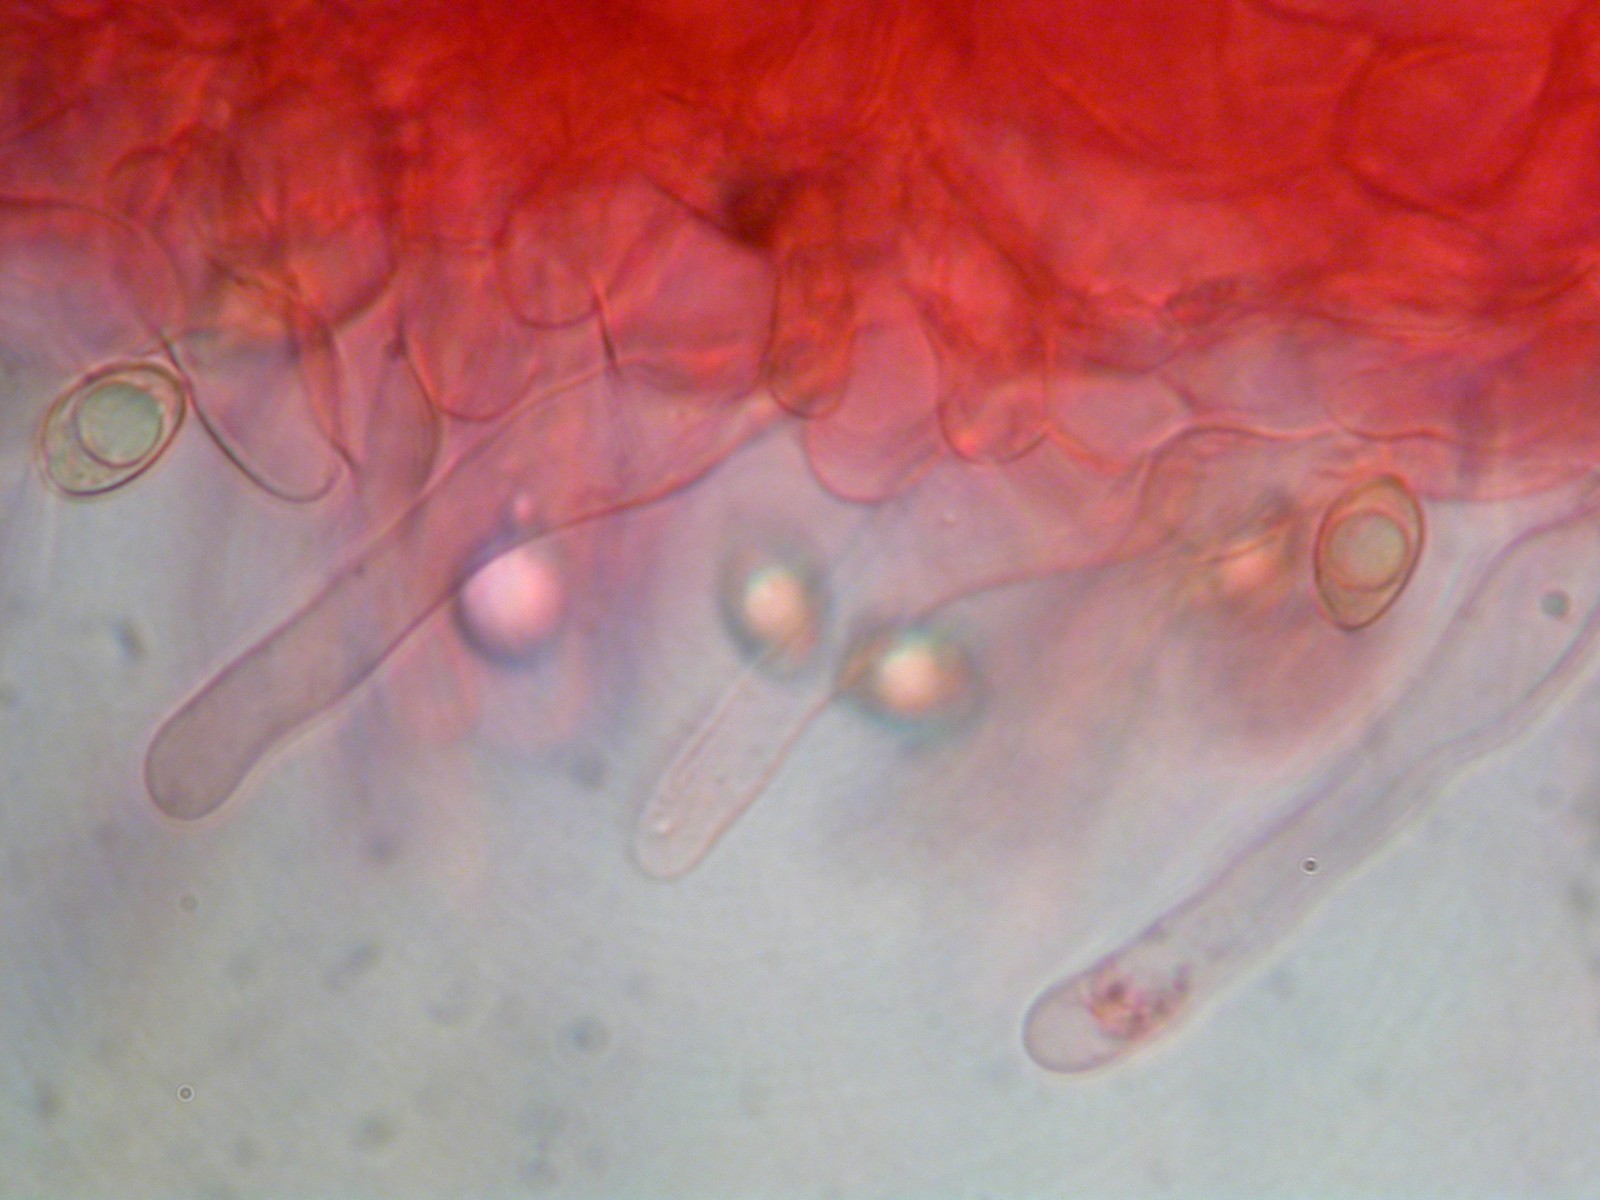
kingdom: Fungi
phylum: Basidiomycota
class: Agaricomycetes
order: Agaricales
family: Hymenogastraceae
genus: Hebeloma
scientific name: Hebeloma velatum
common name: knippe-tåreblad
